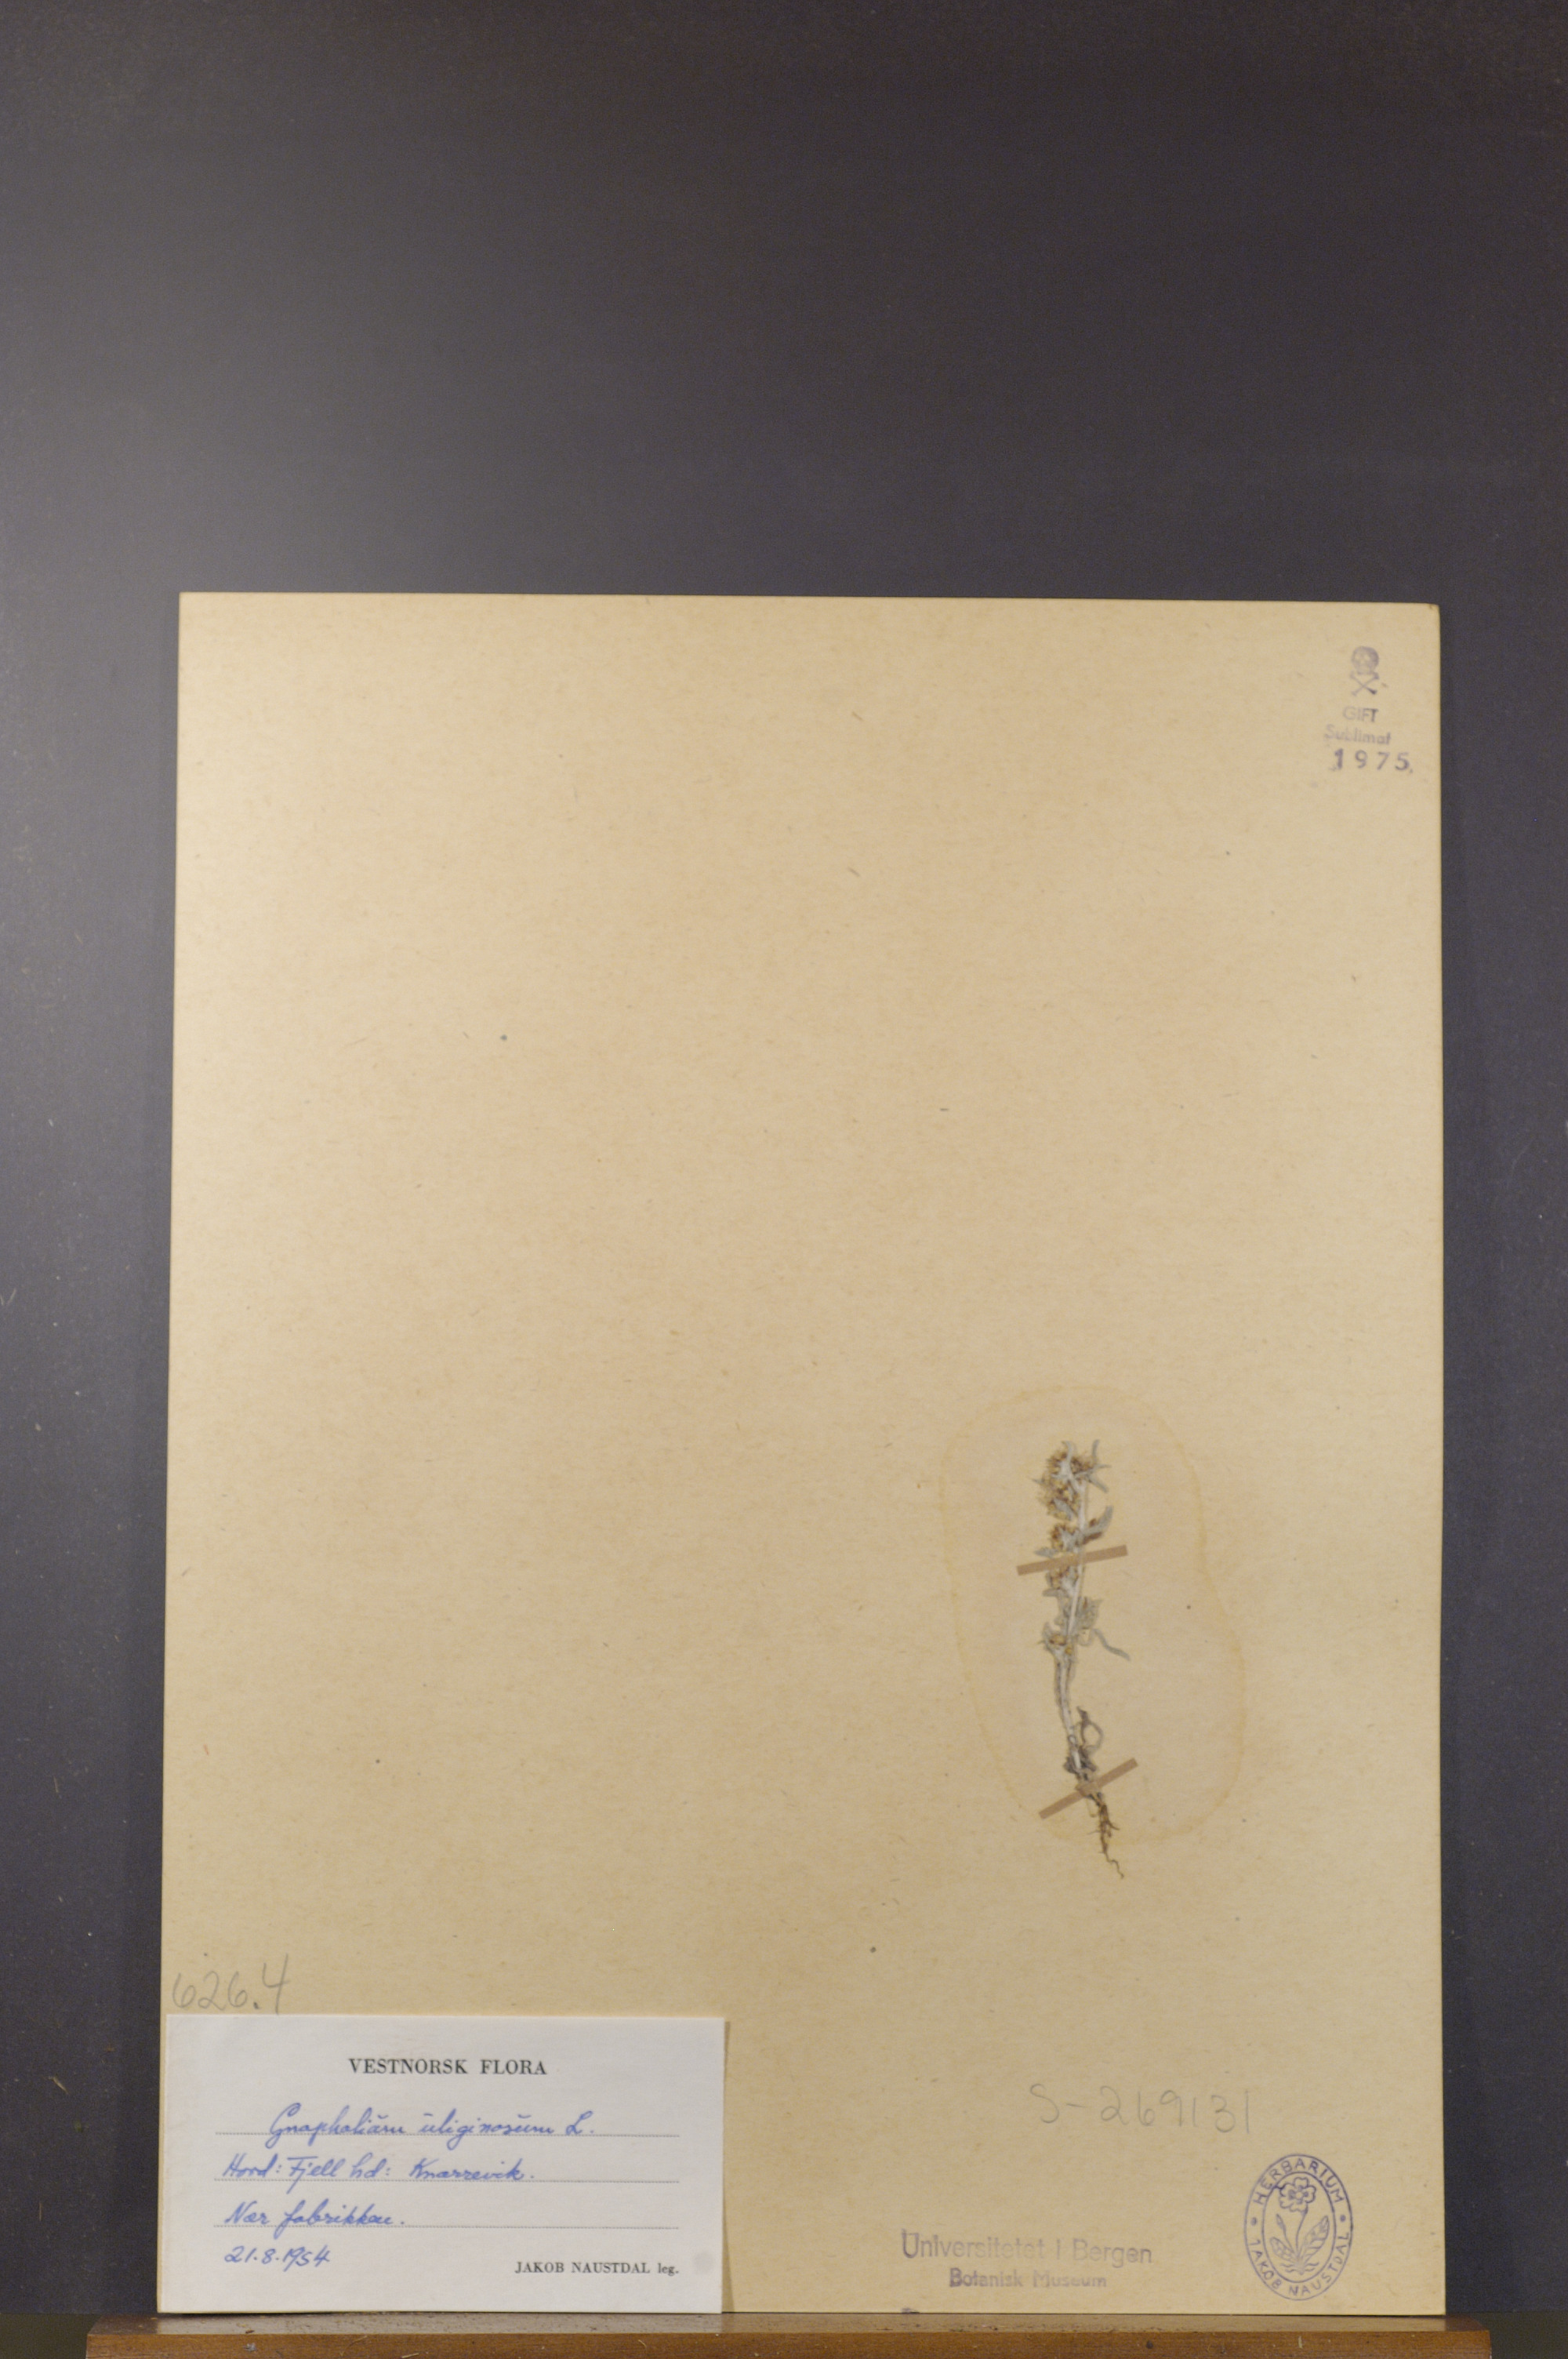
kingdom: Plantae
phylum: Tracheophyta
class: Magnoliopsida
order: Asterales
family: Asteraceae
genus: Gnaphalium
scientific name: Gnaphalium uliginosum
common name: Marsh cudweed
